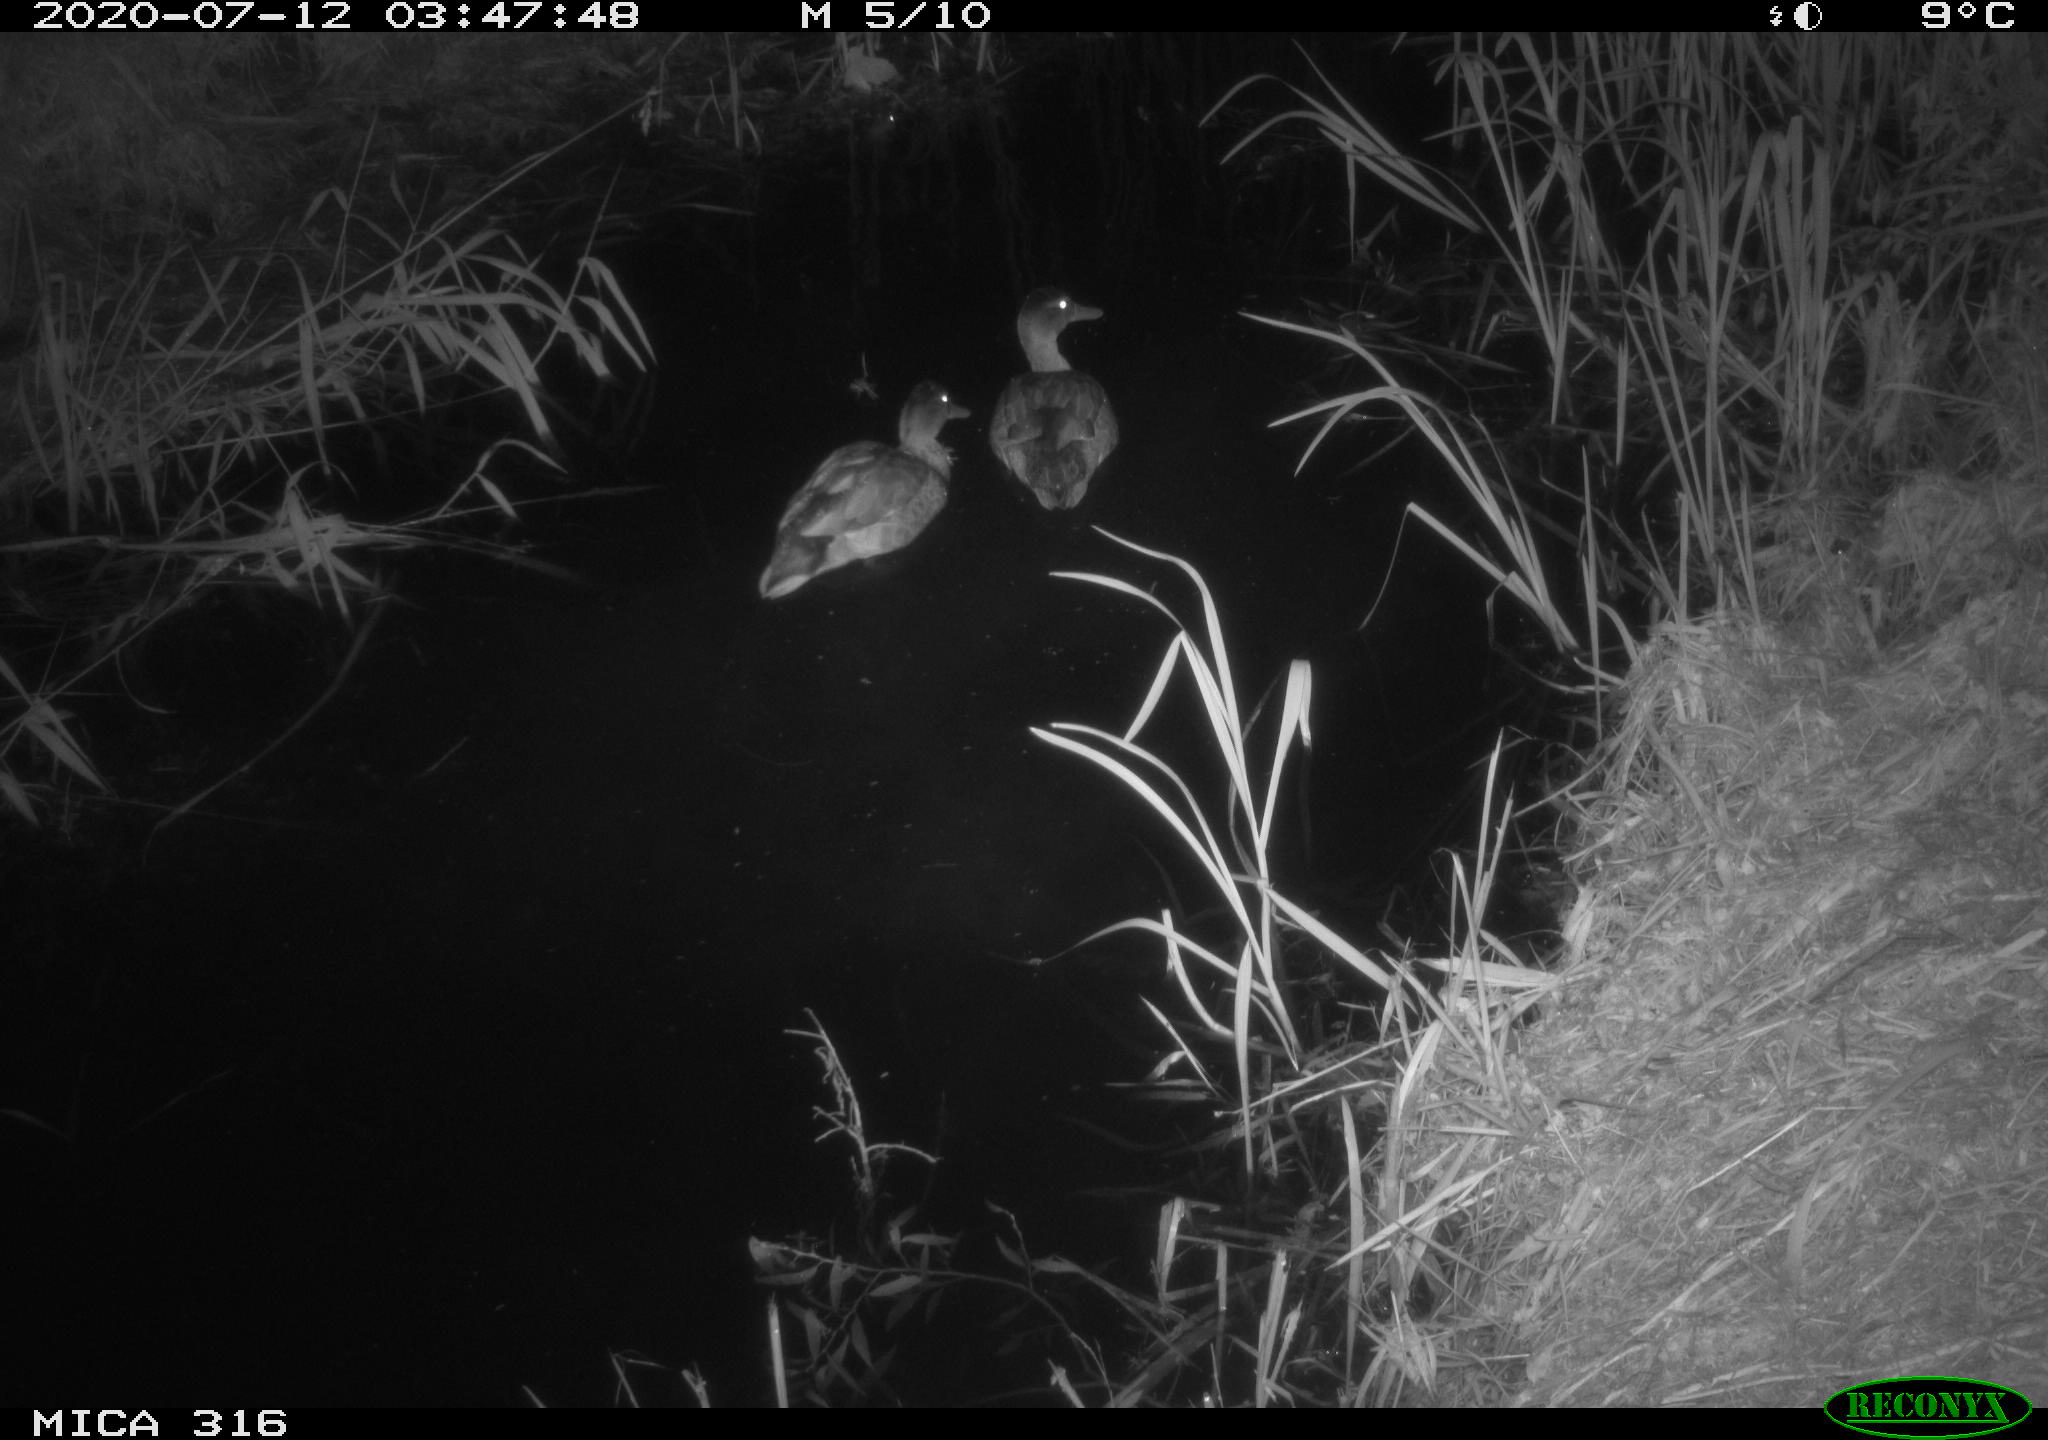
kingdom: Animalia
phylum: Chordata
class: Aves
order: Anseriformes
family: Anatidae
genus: Anas
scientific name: Anas platyrhynchos
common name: Mallard
